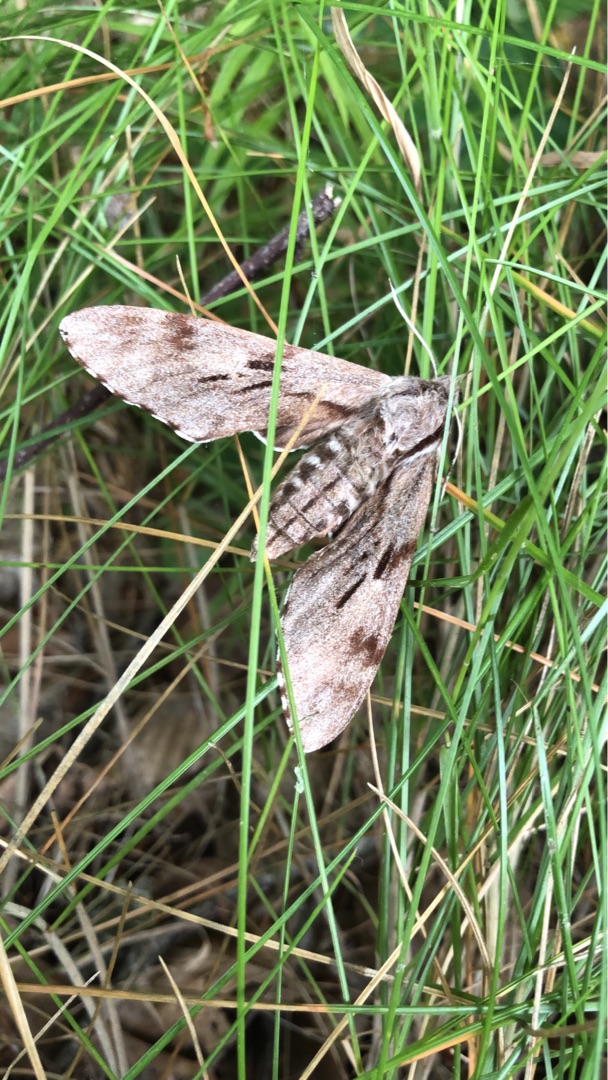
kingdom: Animalia
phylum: Arthropoda
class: Insecta
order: Lepidoptera
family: Sphingidae
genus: Sphinx
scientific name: Sphinx pinastri
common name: Fyrresværmer
